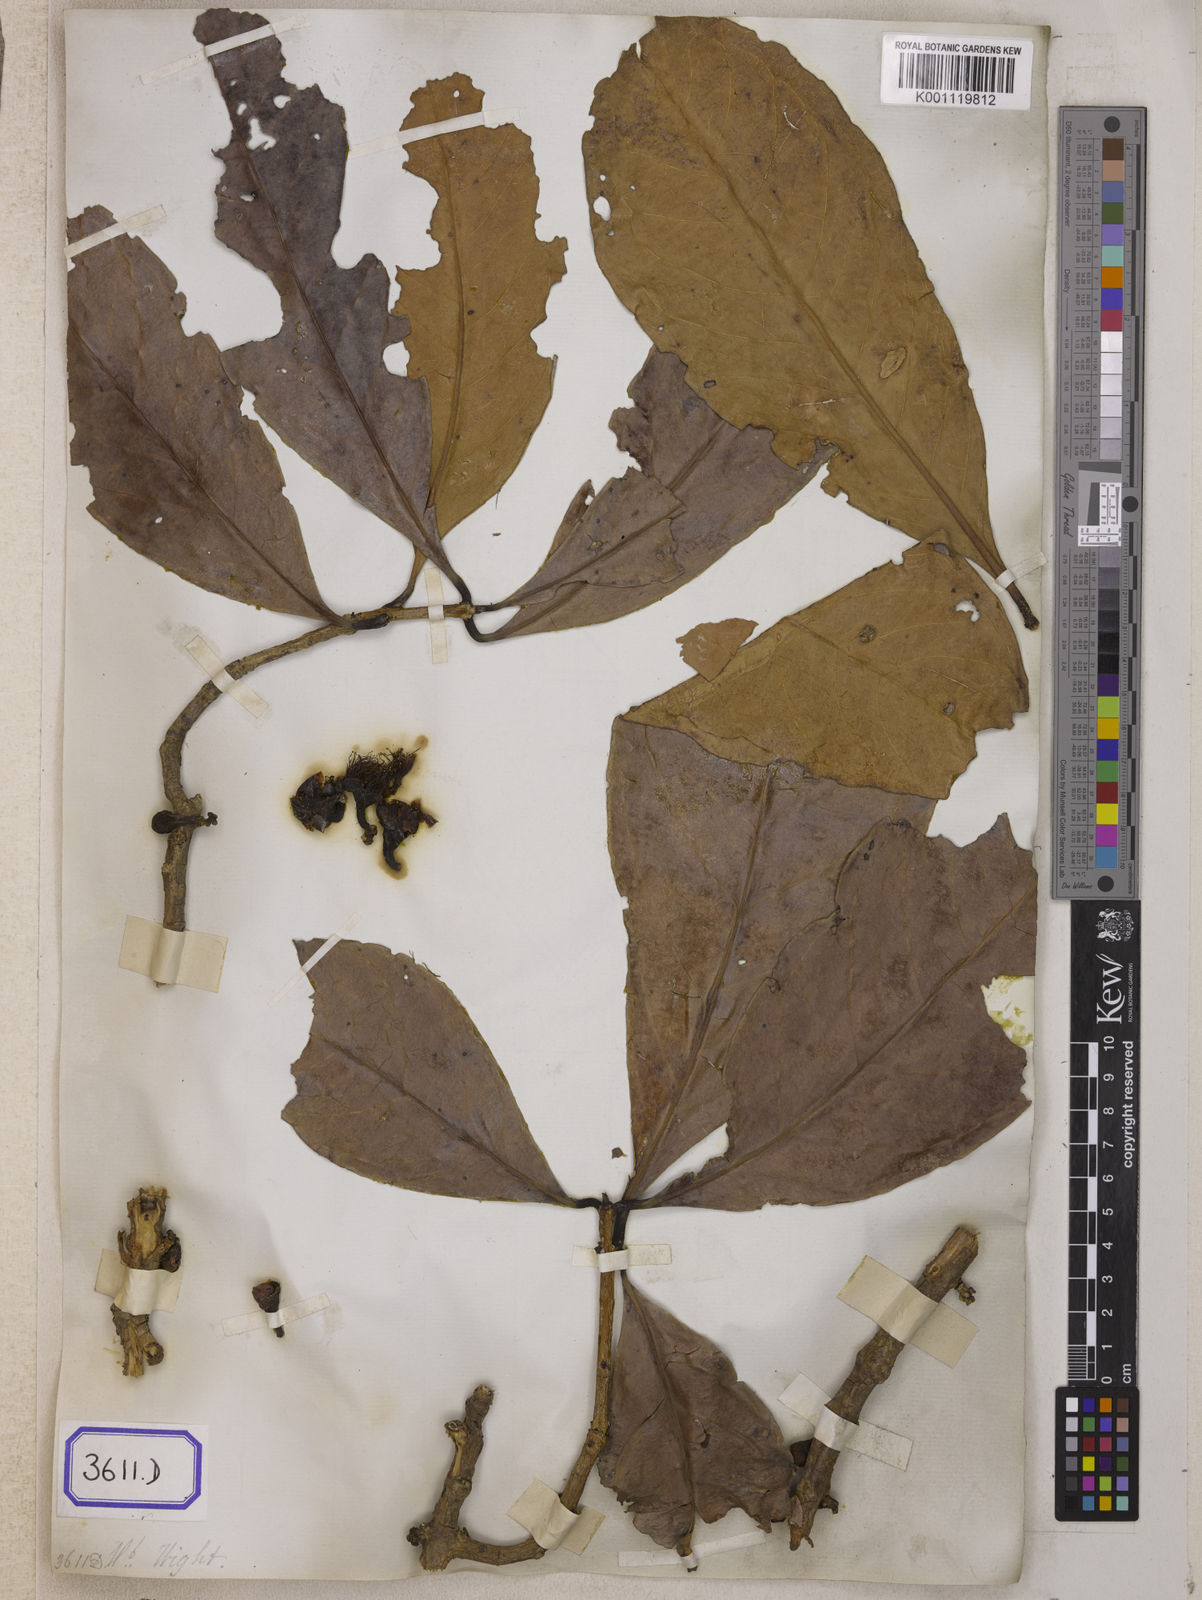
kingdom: Plantae
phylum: Tracheophyta
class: Magnoliopsida
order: Myrtales
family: Myrtaceae
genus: Syzygium
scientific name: Syzygium malaccense
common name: Malaysian apple
